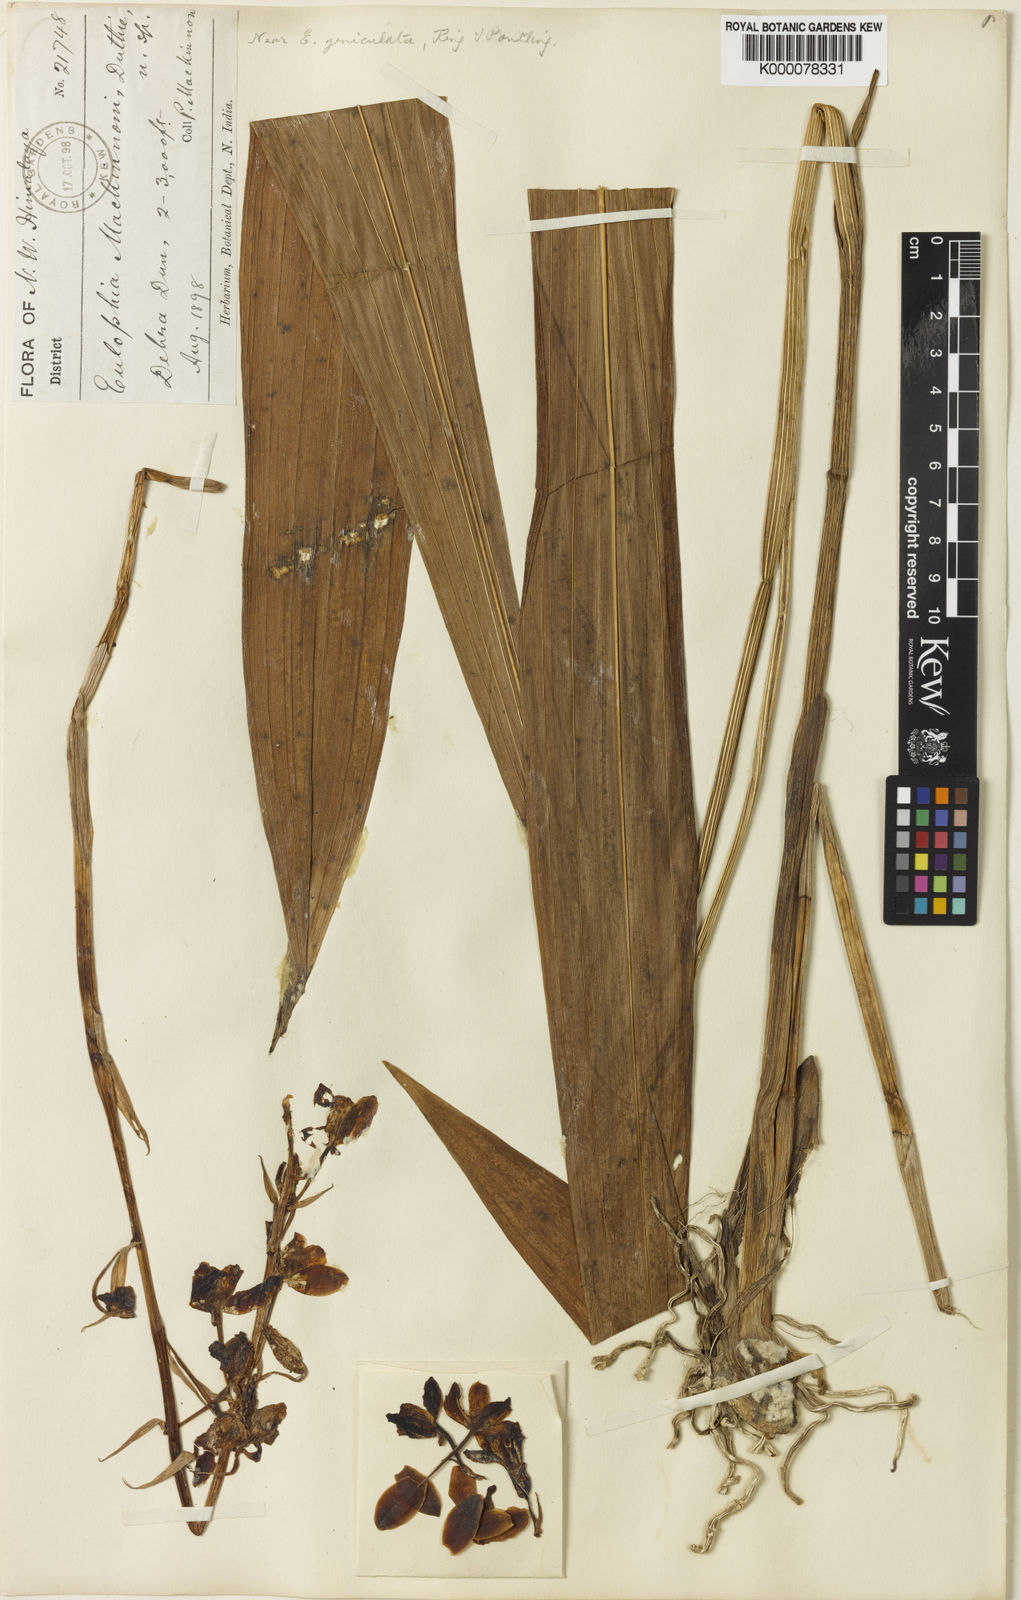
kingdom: Plantae
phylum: Tracheophyta
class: Liliopsida
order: Asparagales
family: Orchidaceae
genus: Eulophia
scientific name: Eulophia mackinnonii
